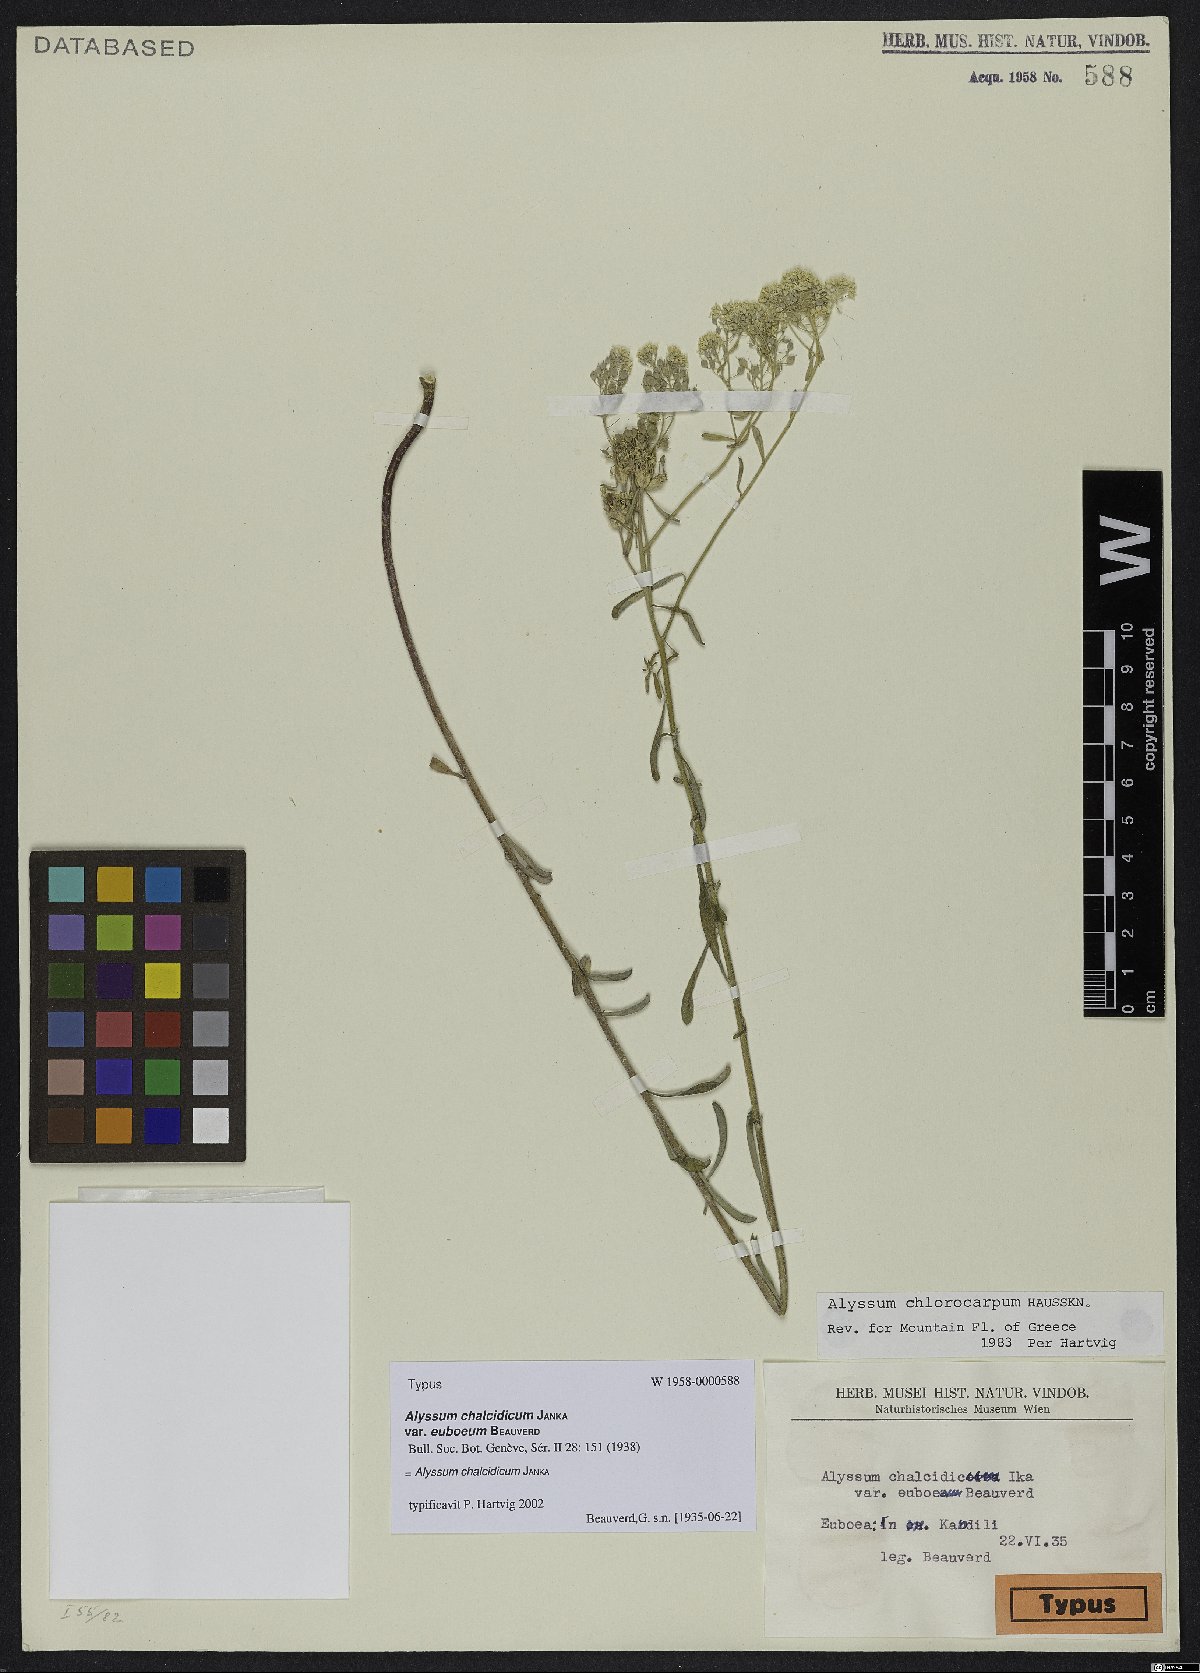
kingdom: Plantae
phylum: Tracheophyta
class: Magnoliopsida
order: Brassicales
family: Brassicaceae
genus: Odontarrhena
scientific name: Odontarrhena chalcidica
